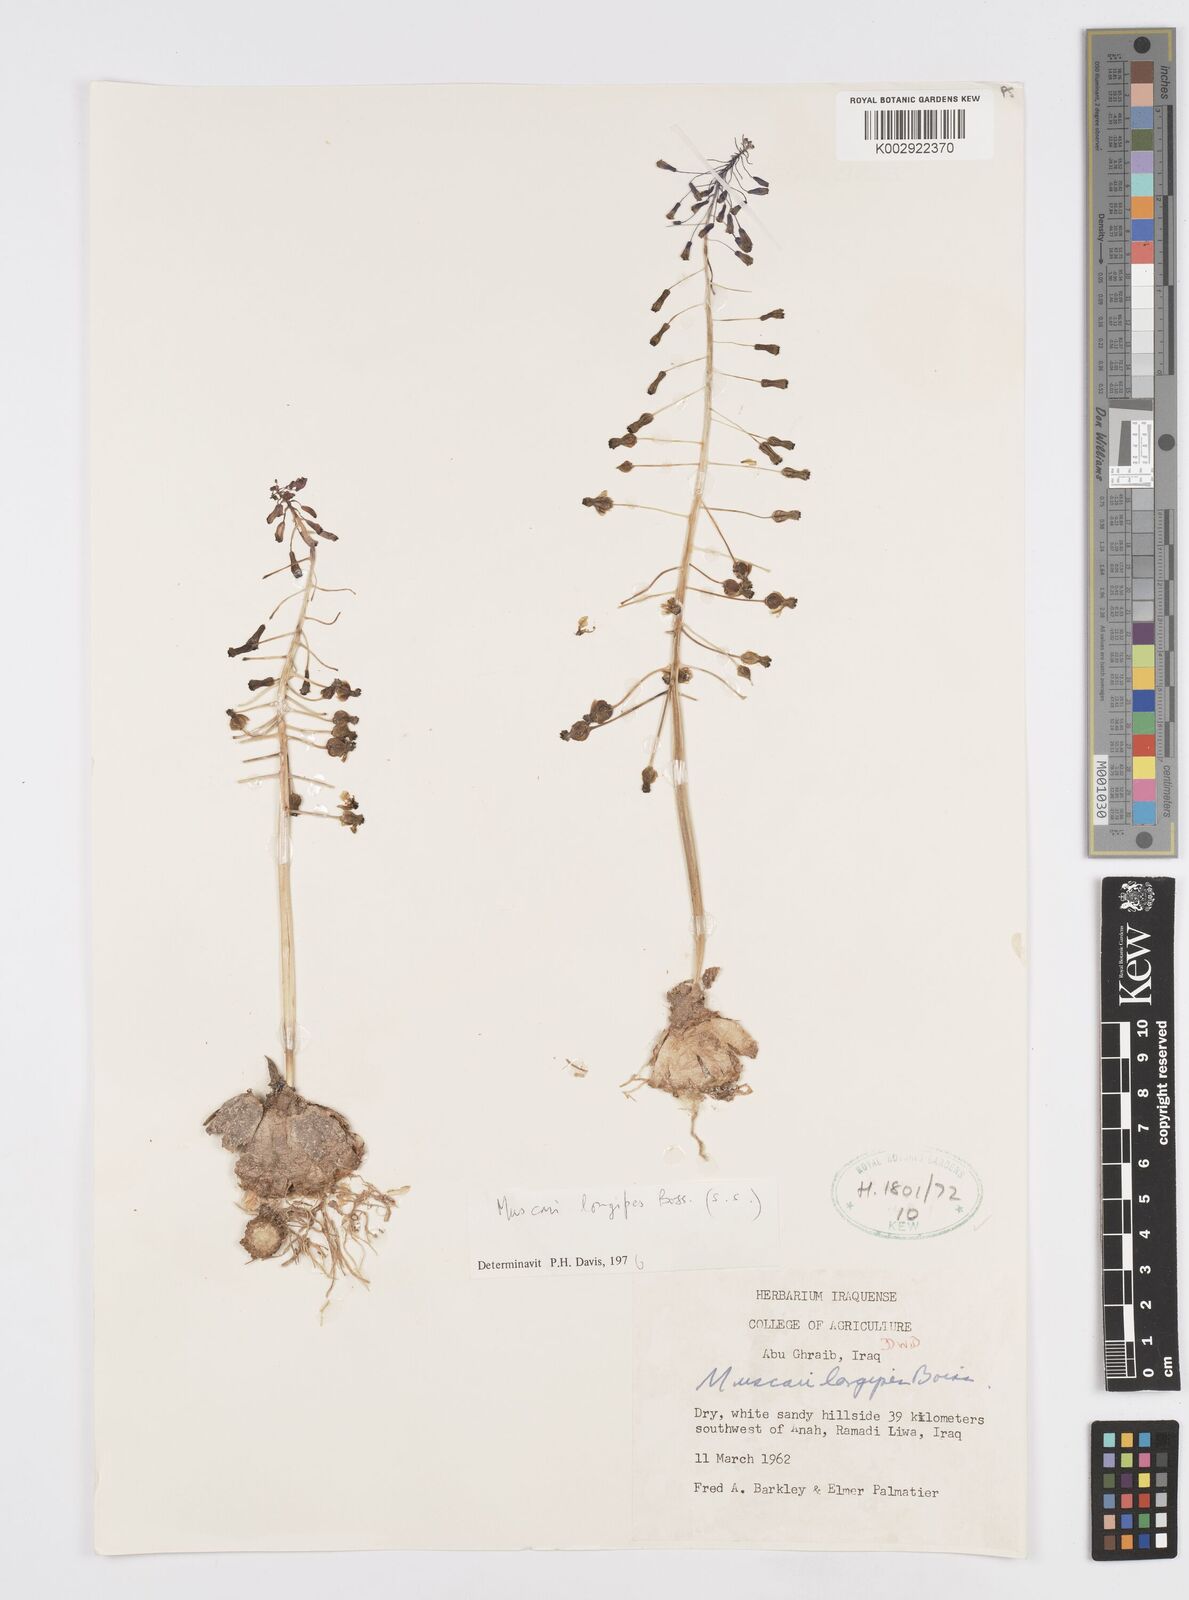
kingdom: Plantae
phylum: Tracheophyta
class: Liliopsida
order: Asparagales
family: Asparagaceae
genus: Muscari
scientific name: Muscari longipes
